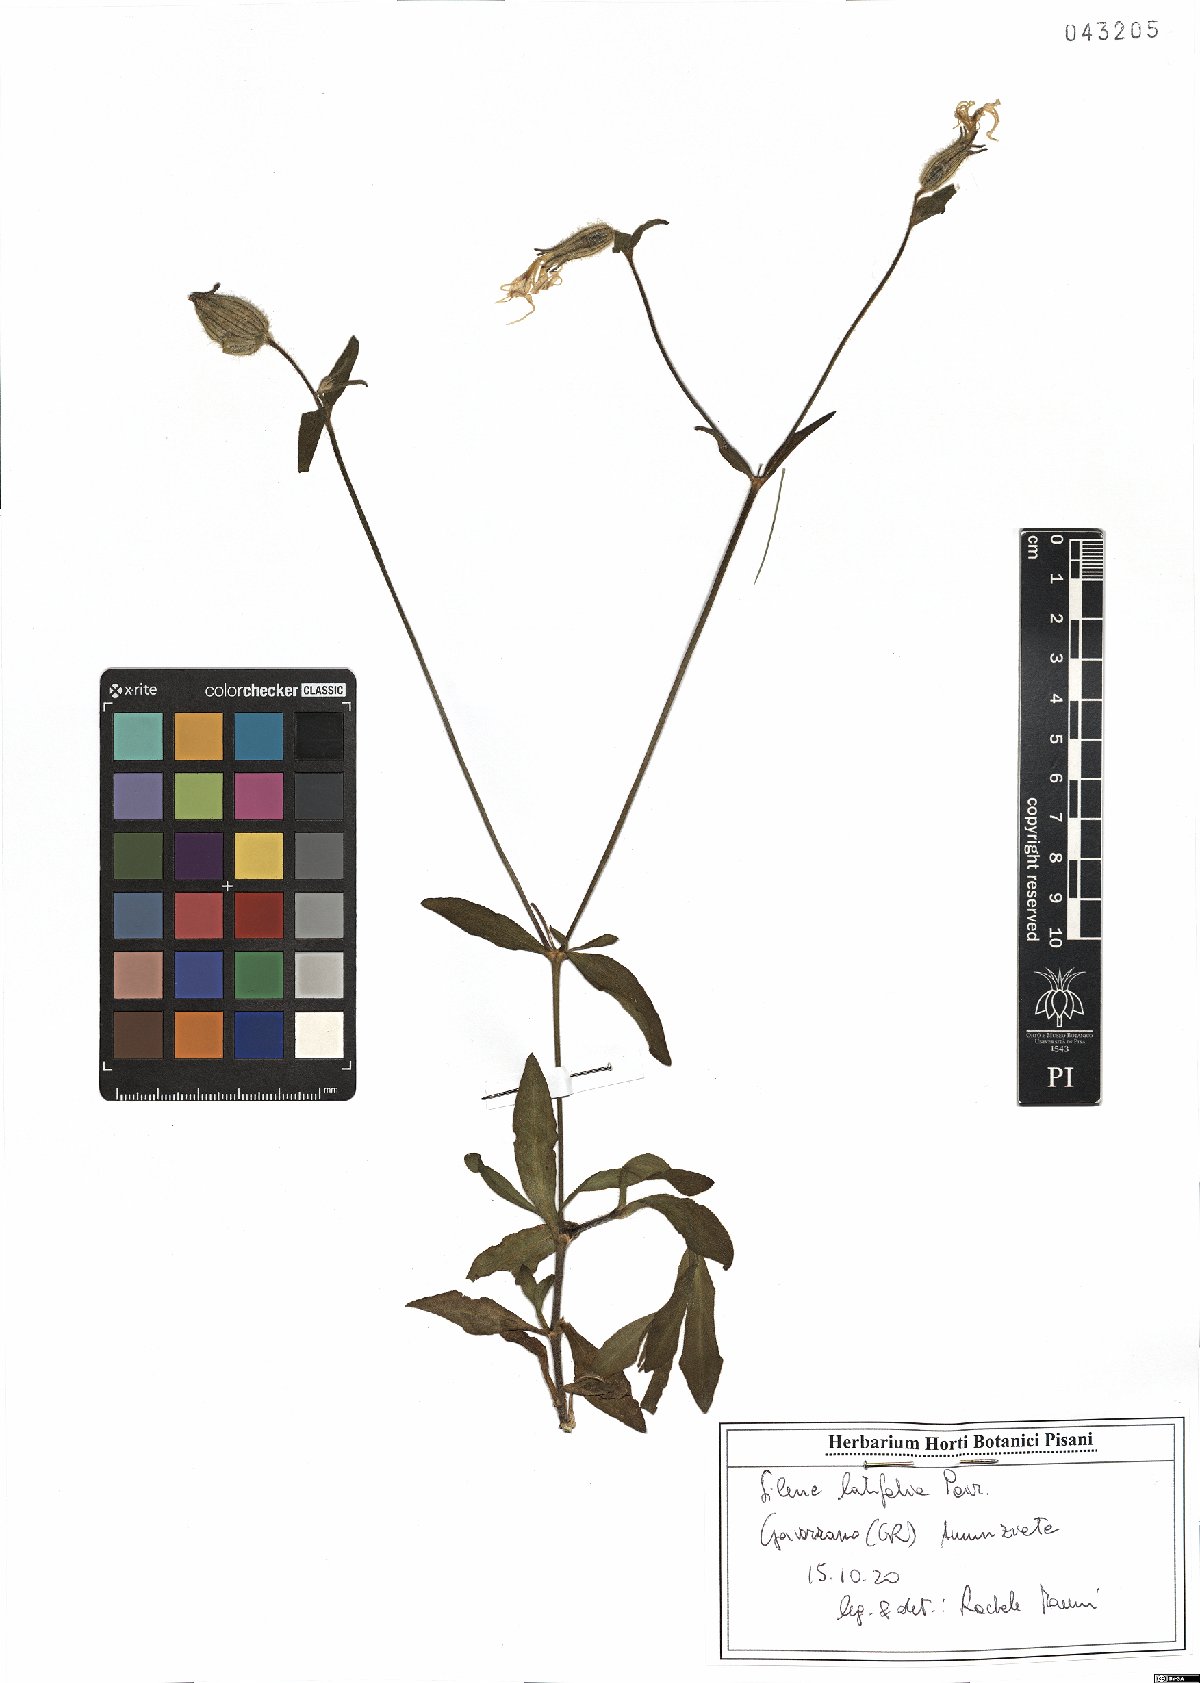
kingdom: Plantae
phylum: Tracheophyta
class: Magnoliopsida
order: Caryophyllales
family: Caryophyllaceae
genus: Silene
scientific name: Silene latifolia
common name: White campion
